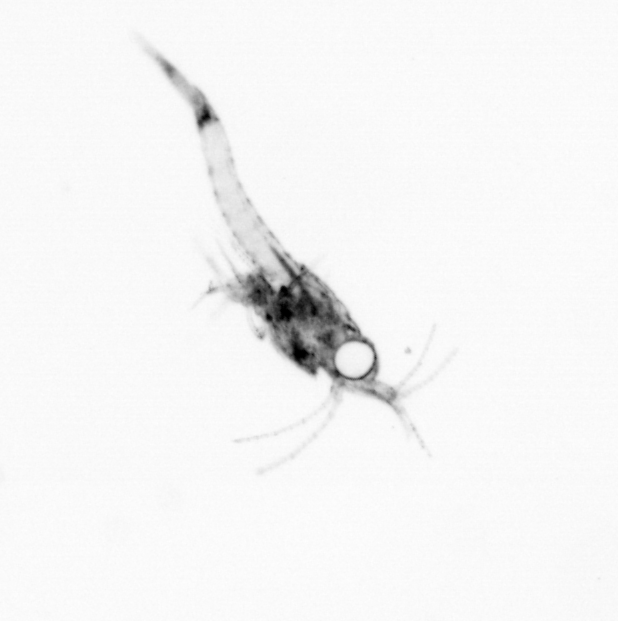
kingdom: Animalia
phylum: Arthropoda
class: Malacostraca
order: Decapoda
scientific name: Decapoda
